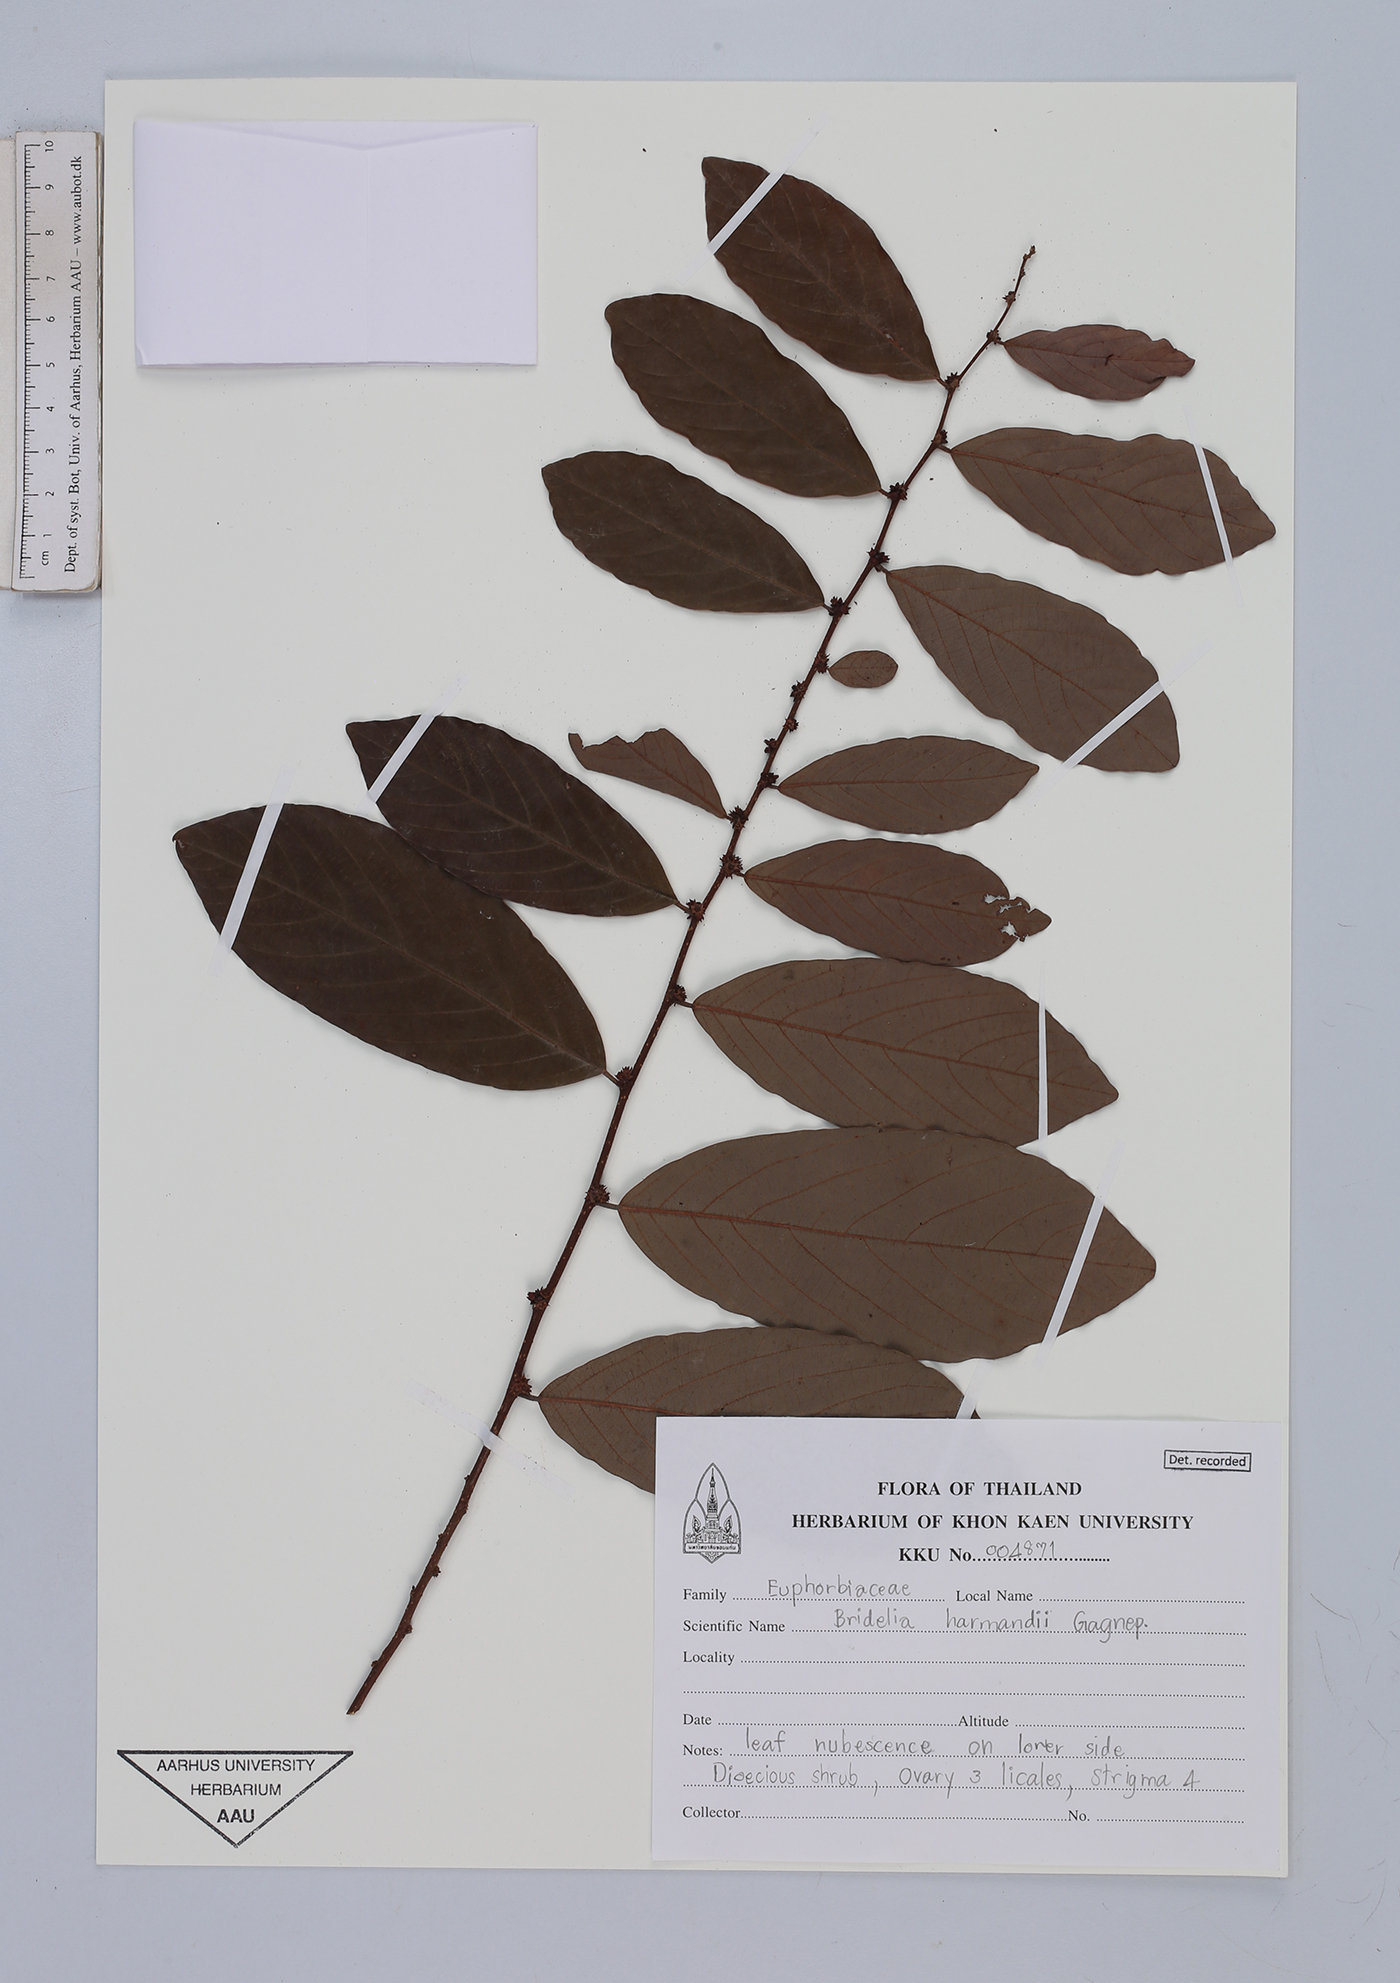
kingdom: Plantae
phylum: Tracheophyta
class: Magnoliopsida
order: Malpighiales
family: Phyllanthaceae
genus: Bridelia
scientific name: Bridelia harmandii
